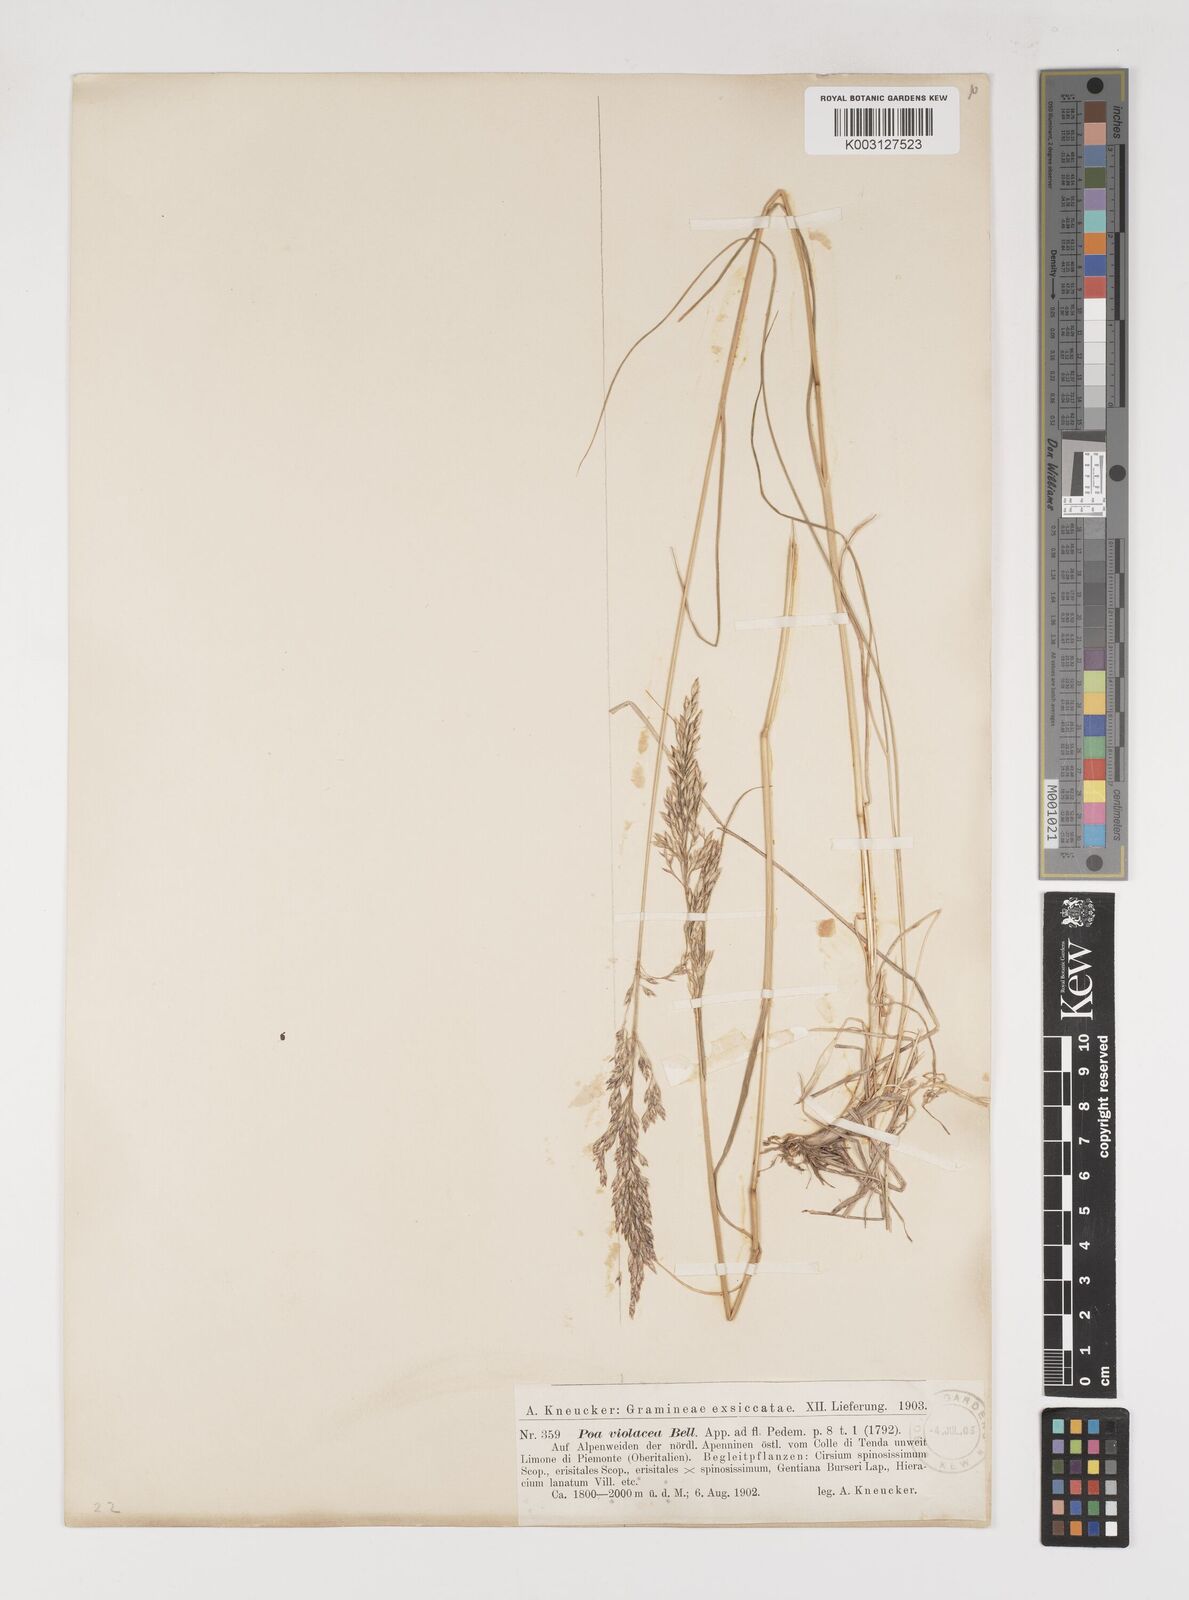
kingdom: Plantae
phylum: Tracheophyta
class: Liliopsida
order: Poales
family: Poaceae
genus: Bellardiochloa
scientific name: Bellardiochloa variegata
